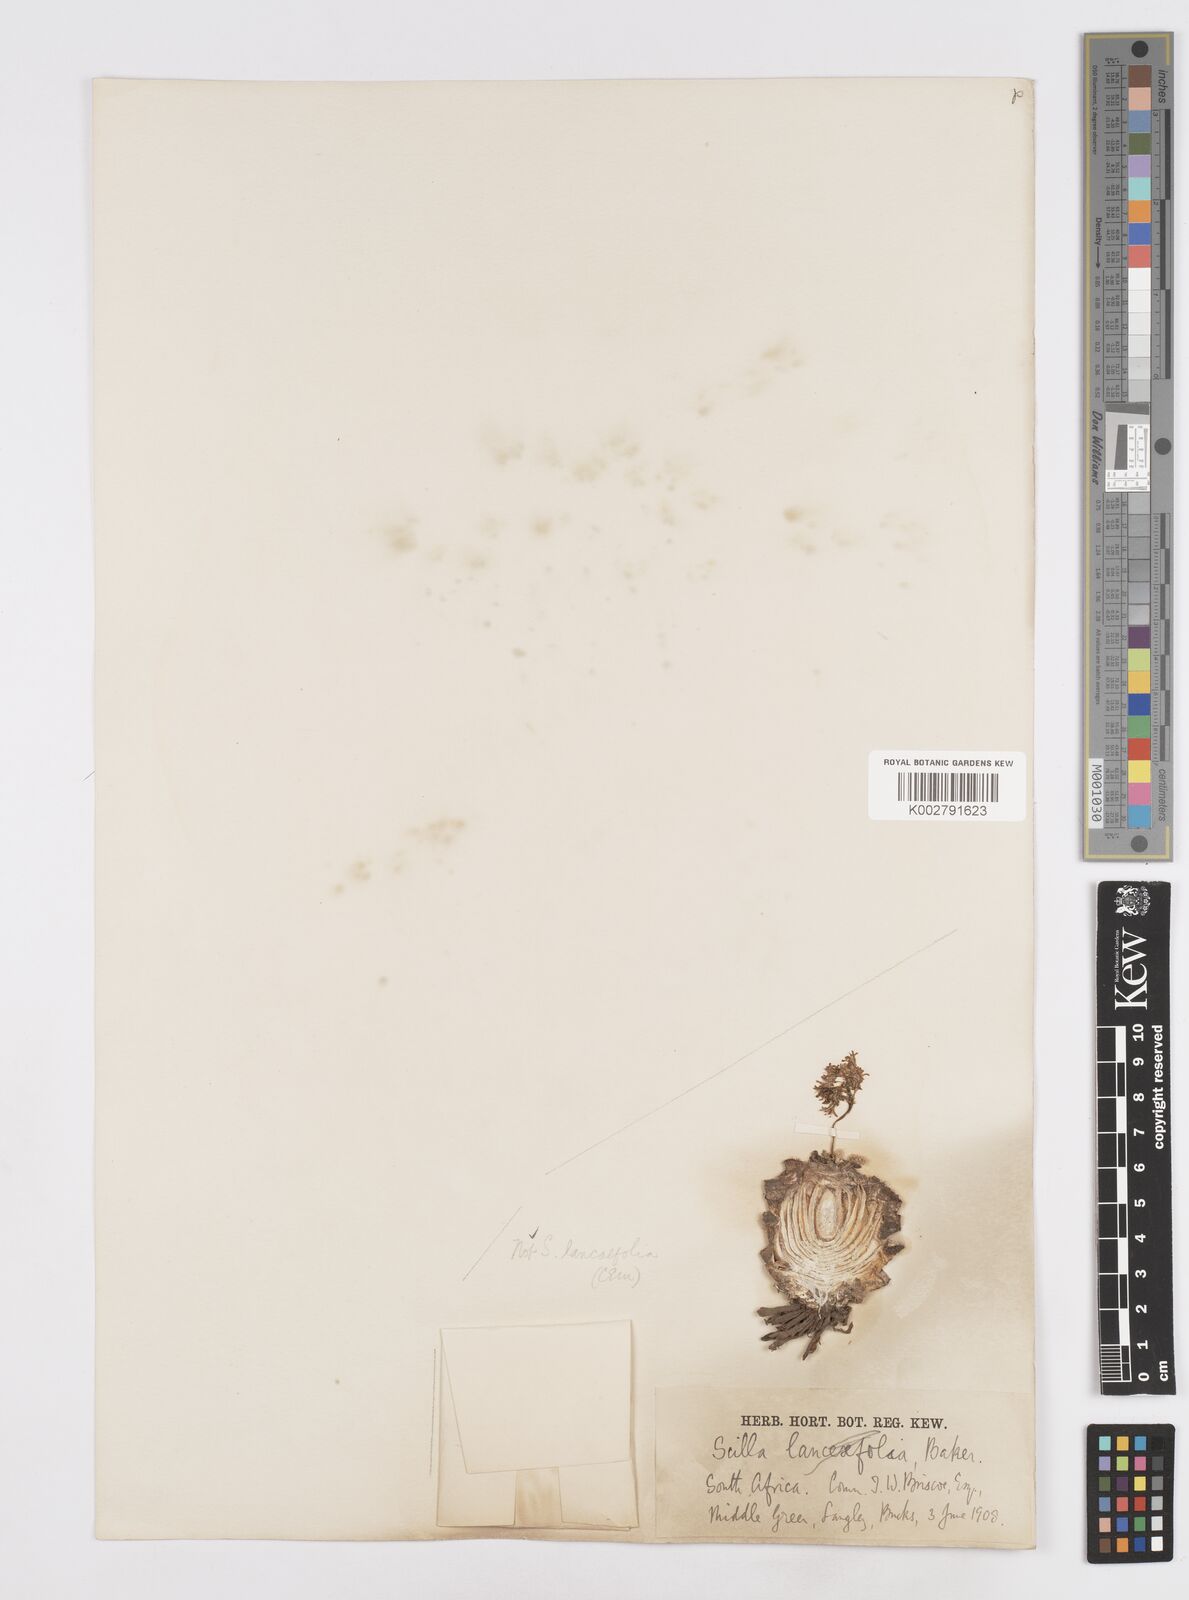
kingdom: Plantae
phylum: Tracheophyta
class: Liliopsida
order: Asparagales
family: Asparagaceae
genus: Scilla
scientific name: Scilla
